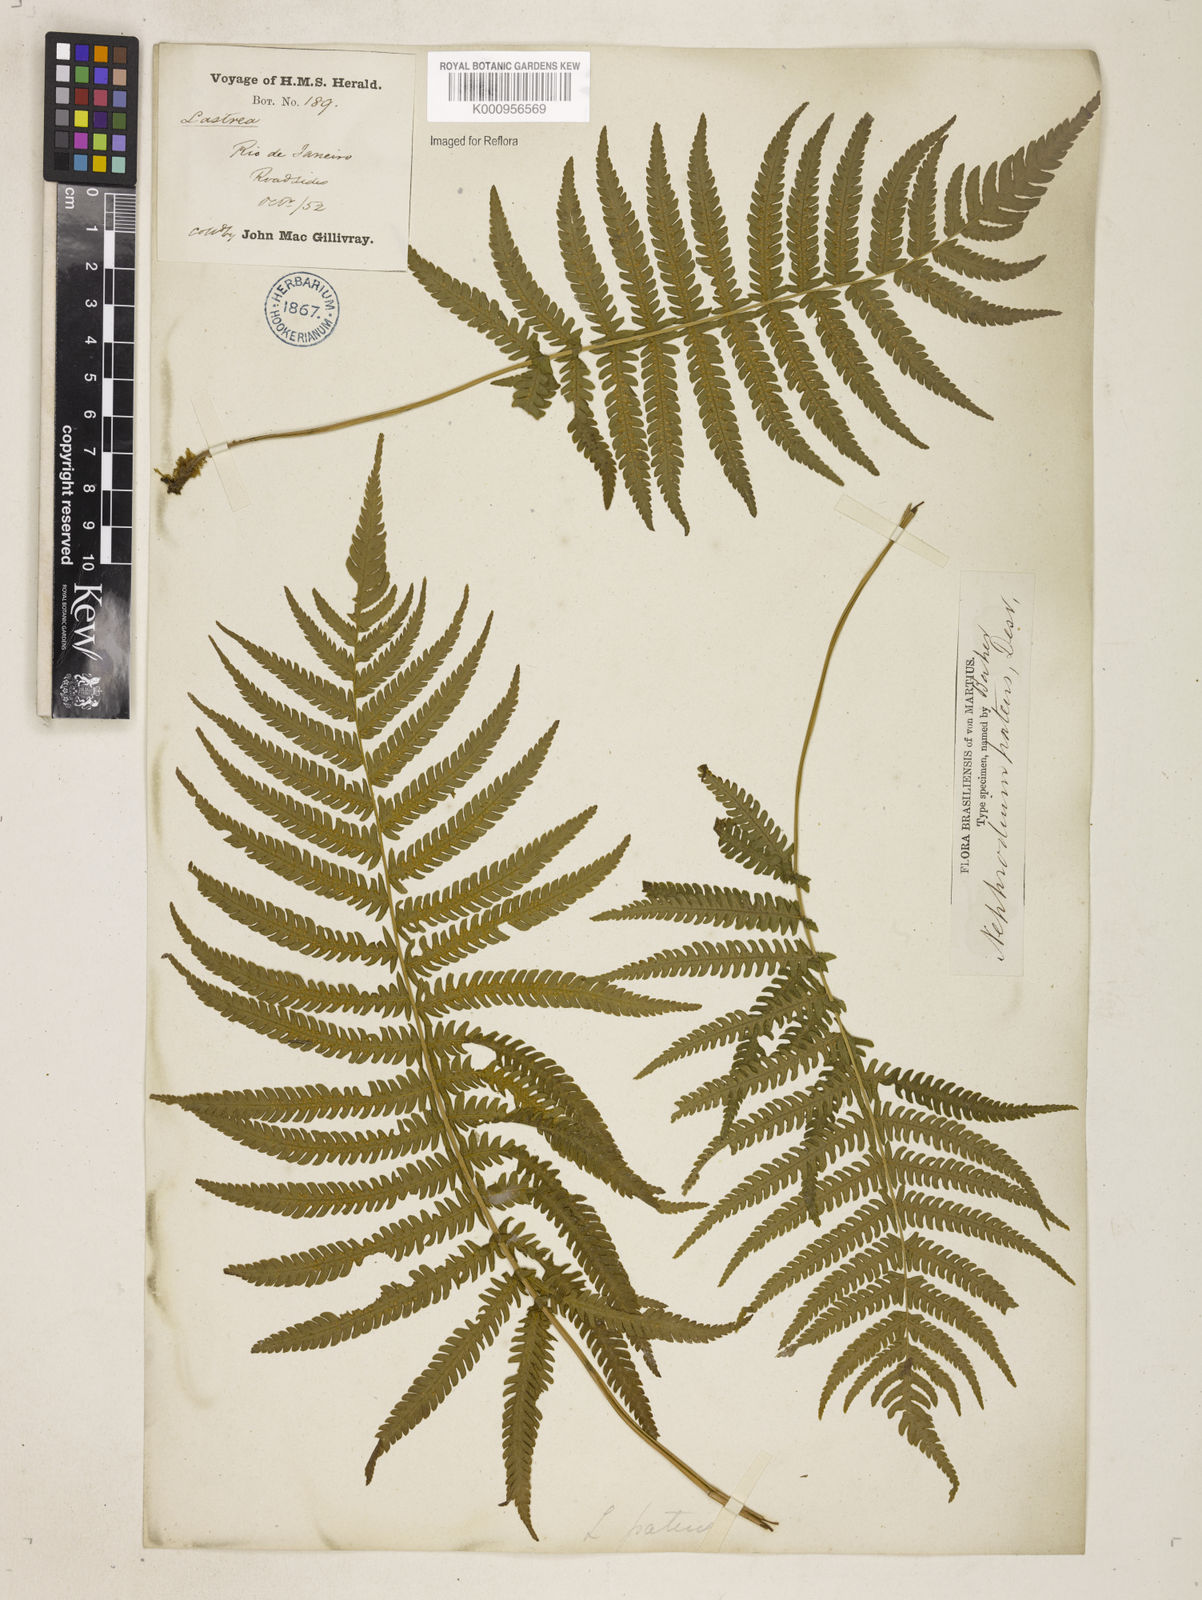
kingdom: Plantae
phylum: Tracheophyta
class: Polypodiopsida
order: Polypodiales
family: Thelypteridaceae
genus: Pelazoneuron
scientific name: Pelazoneuron patens
